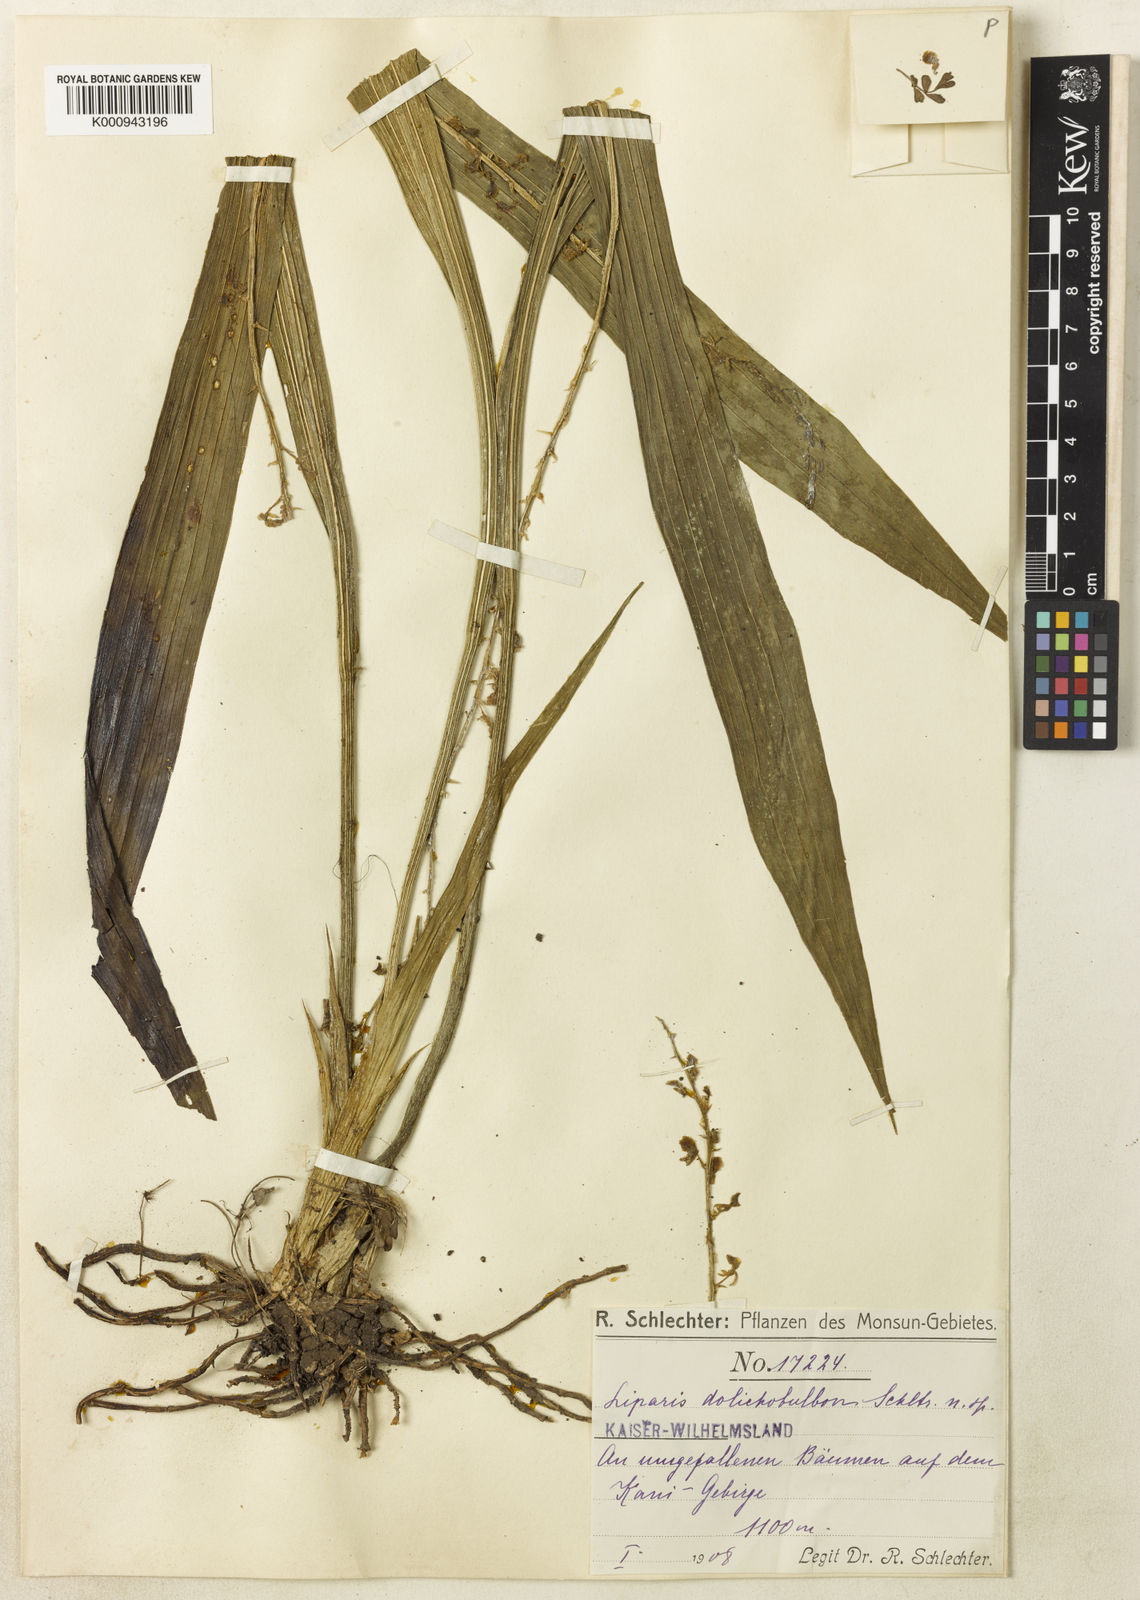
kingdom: Plantae
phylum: Tracheophyta
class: Liliopsida
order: Asparagales
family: Orchidaceae
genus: Liparis
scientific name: Liparis dolichobulbon
